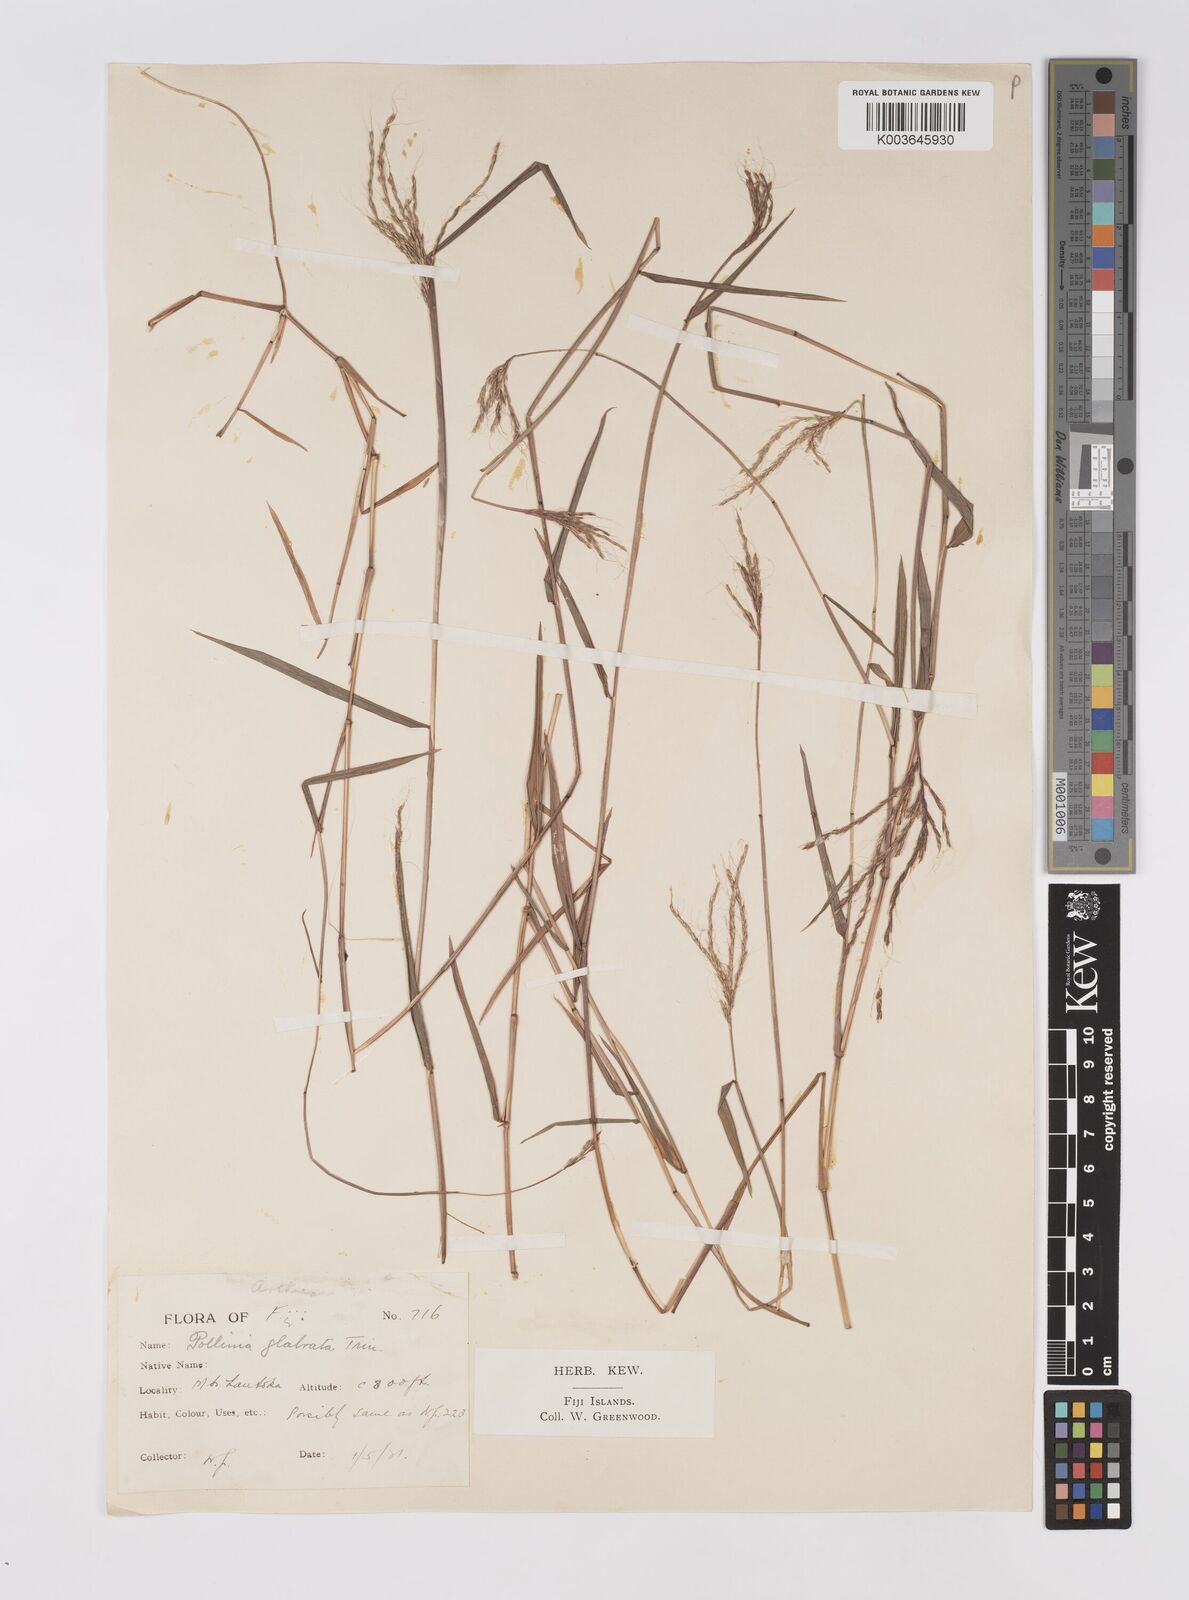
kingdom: Plantae
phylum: Tracheophyta
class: Liliopsida
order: Poales
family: Poaceae
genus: Microstegium
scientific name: Microstegium glabratum
